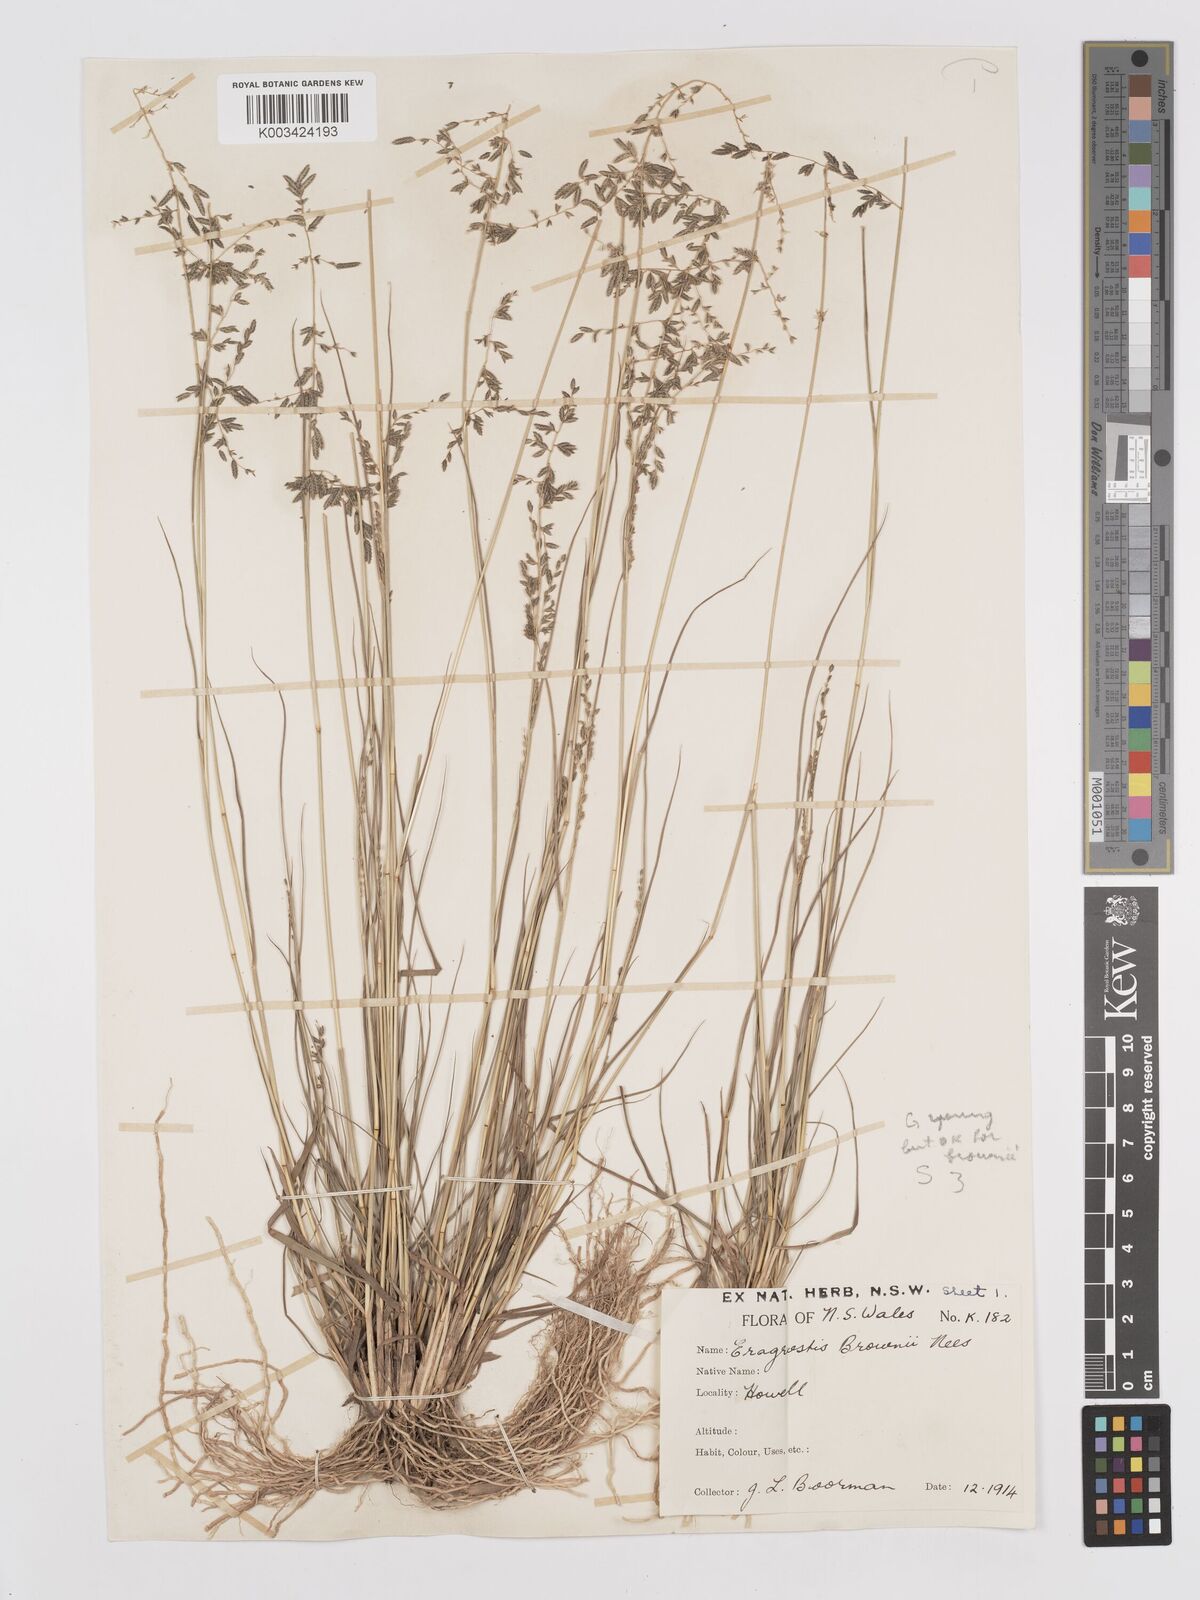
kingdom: Plantae
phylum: Tracheophyta
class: Liliopsida
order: Poales
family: Poaceae
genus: Eragrostis
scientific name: Eragrostis brownii
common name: Lovegrass
